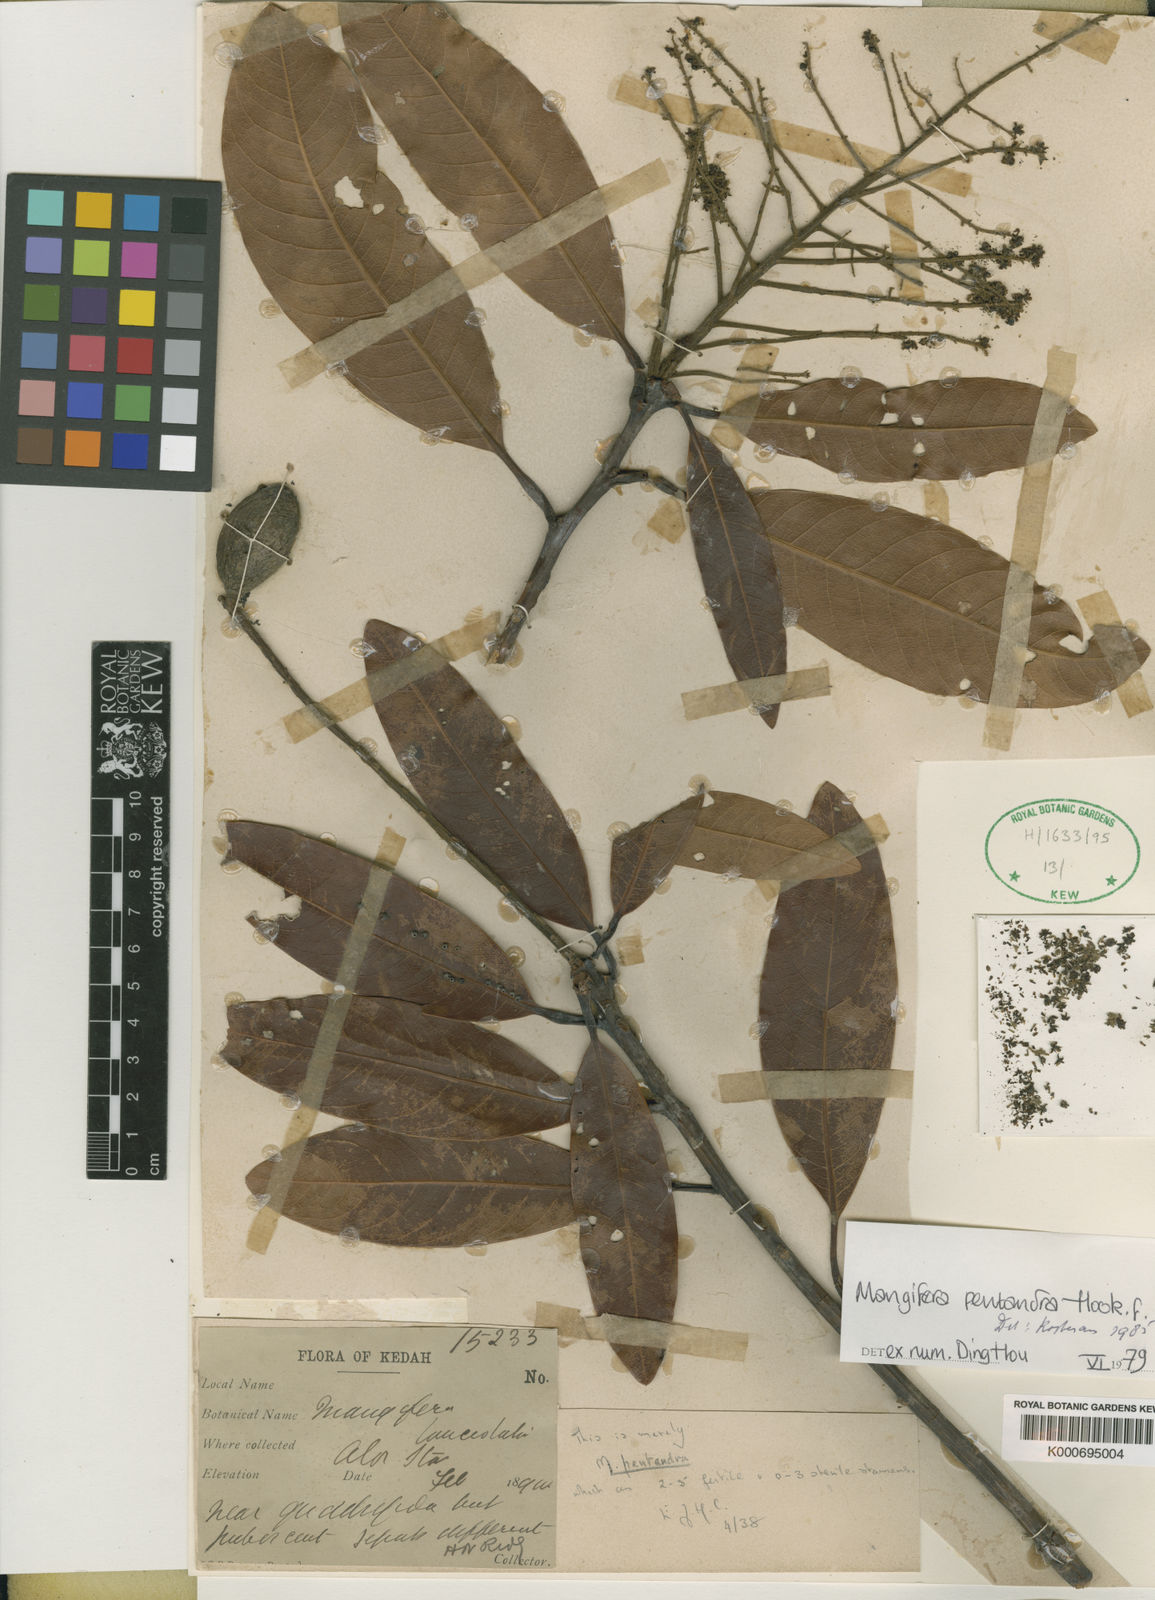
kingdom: Plantae
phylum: Tracheophyta
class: Magnoliopsida
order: Sapindales
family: Anacardiaceae
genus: Mangifera
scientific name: Mangifera pentandra
